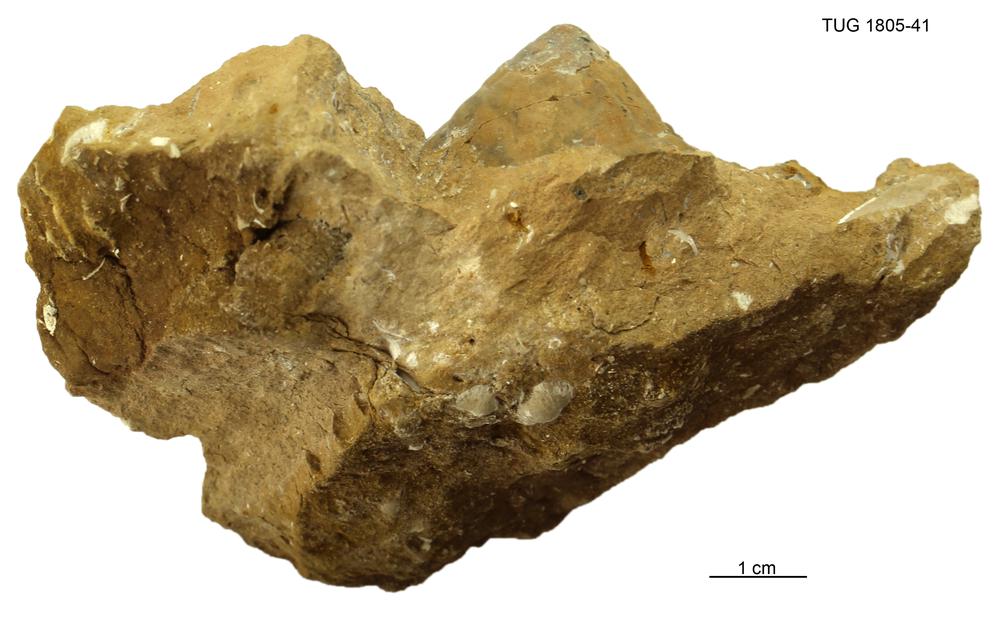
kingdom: Animalia
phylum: Mollusca
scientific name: Mollusca
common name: Mollusca
